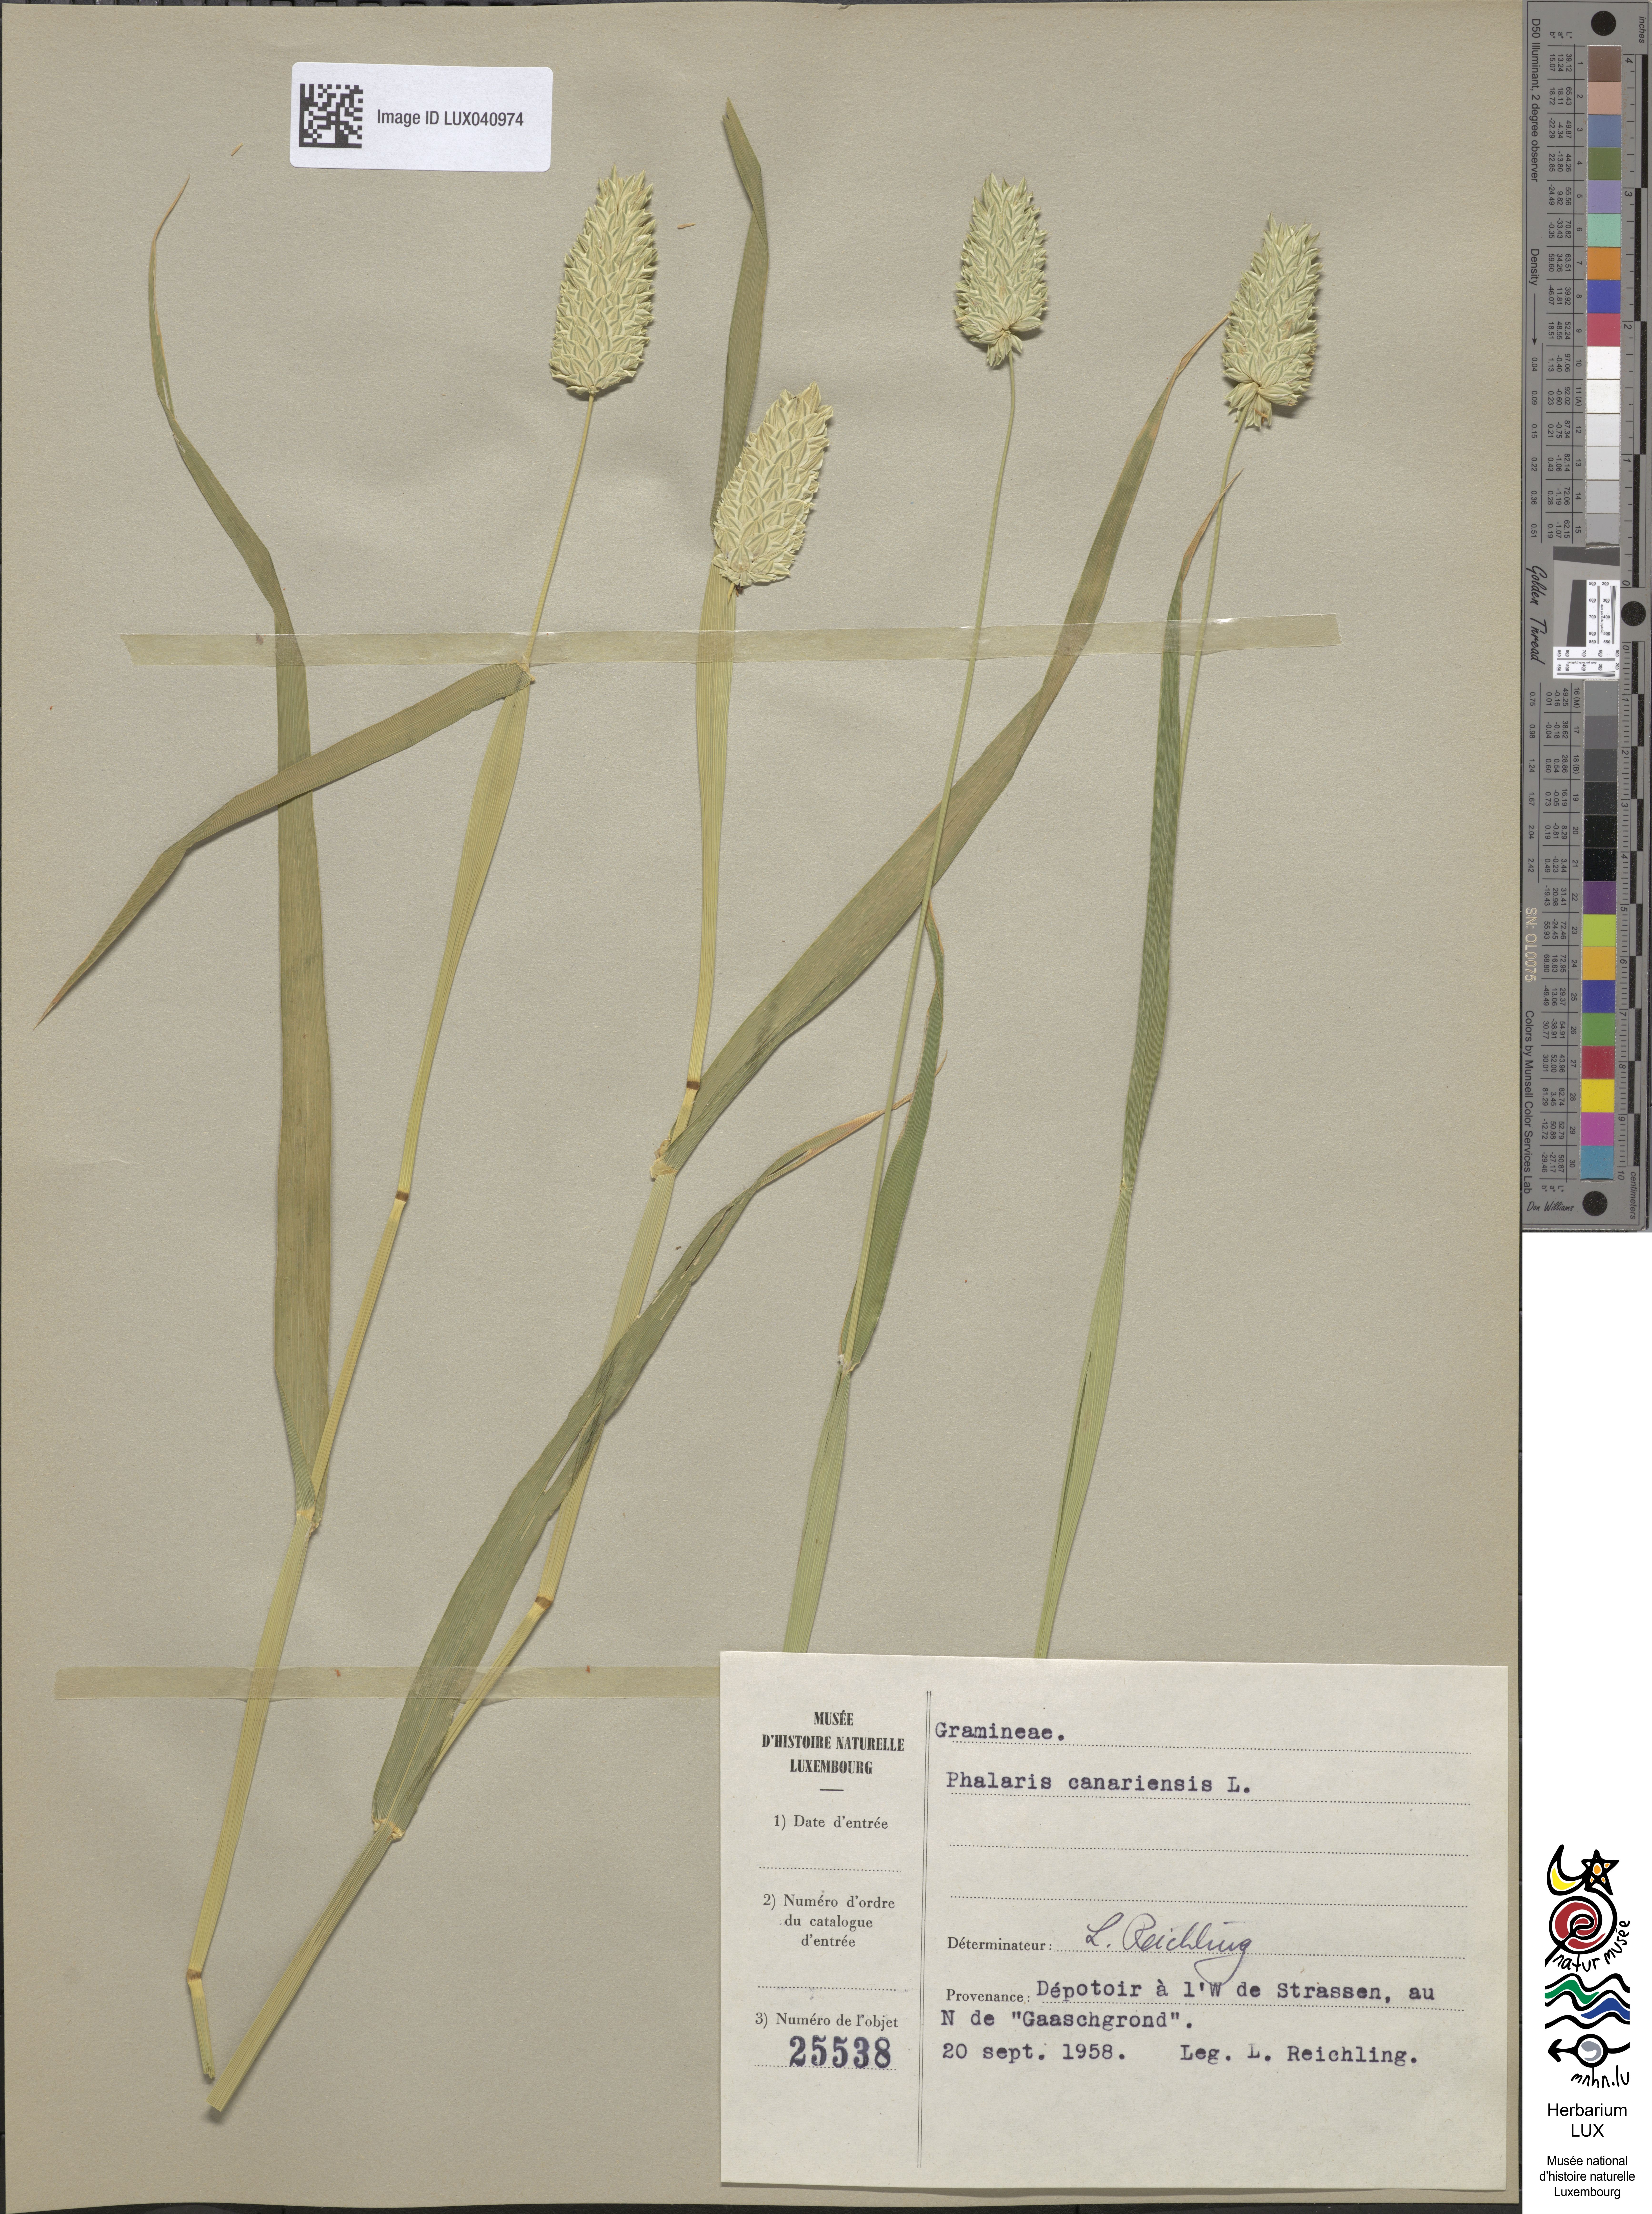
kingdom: Plantae
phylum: Tracheophyta
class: Liliopsida
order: Poales
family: Poaceae
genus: Phalaris
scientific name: Phalaris canariensis
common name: Annual canarygrass
